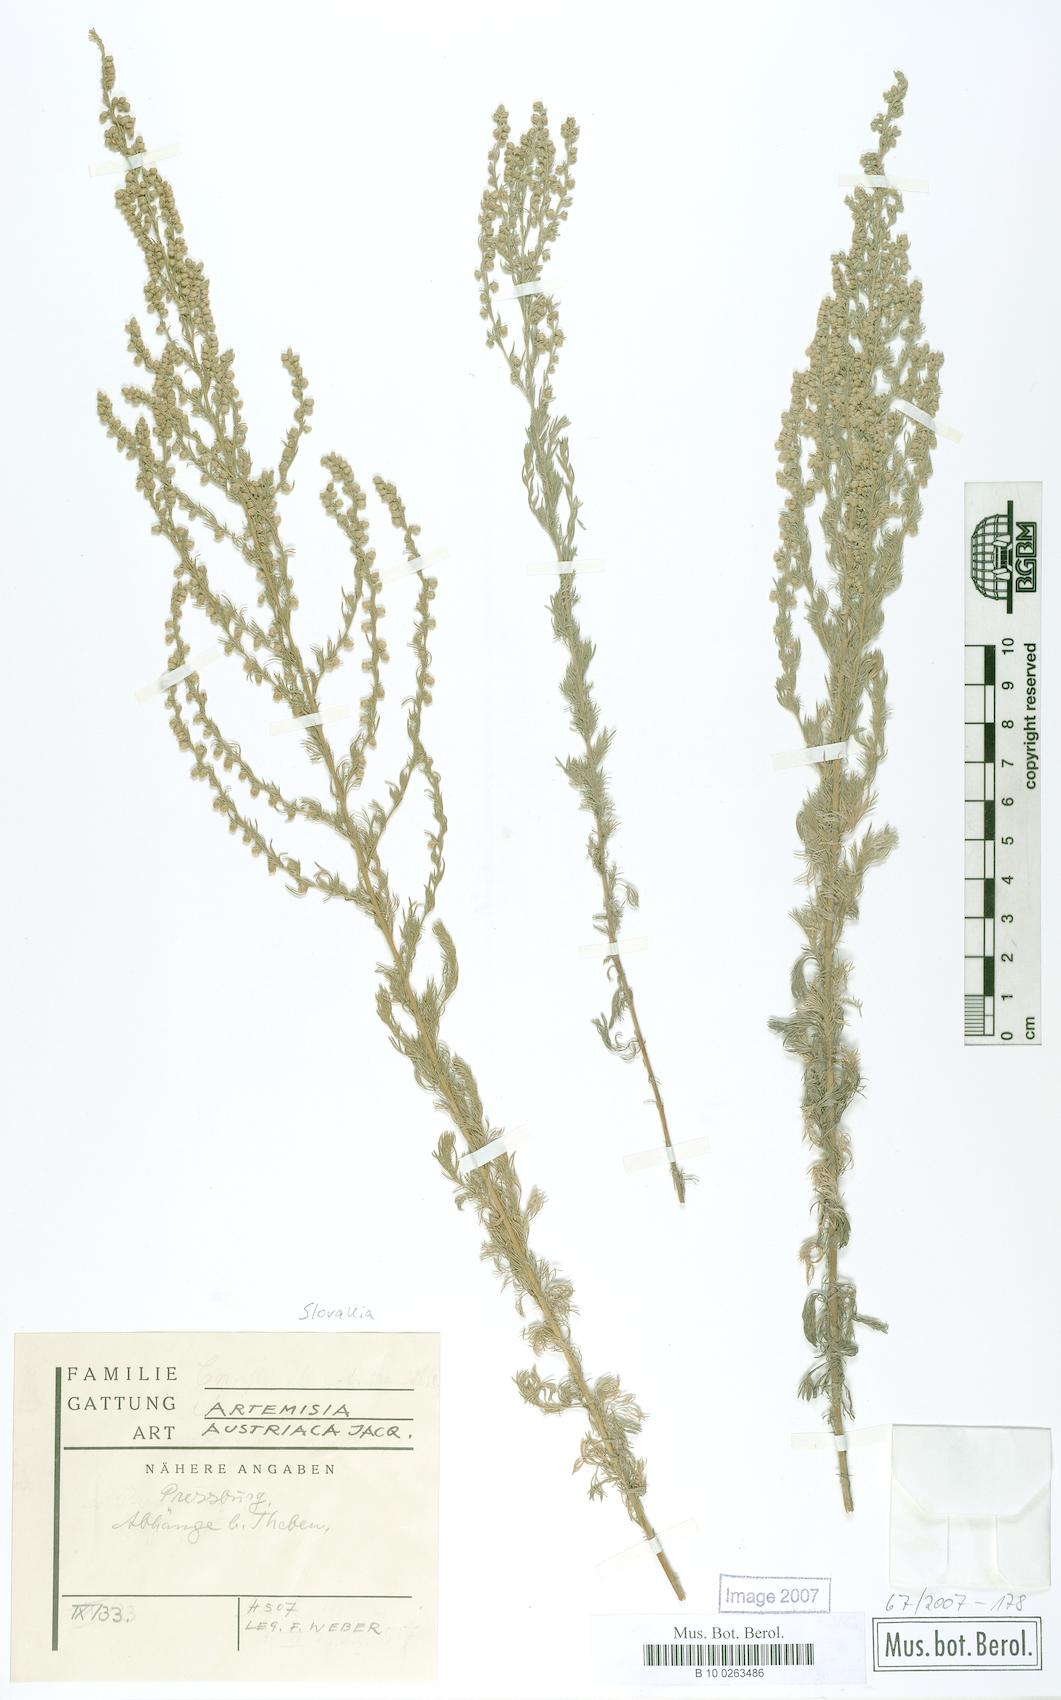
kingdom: Plantae
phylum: Tracheophyta
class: Magnoliopsida
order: Asterales
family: Asteraceae
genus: Artemisia
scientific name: Artemisia austriaca
